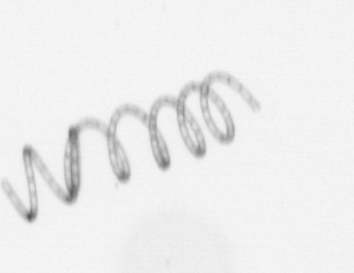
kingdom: Chromista
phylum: Ochrophyta
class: Bacillariophyceae
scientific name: Bacillariophyceae
